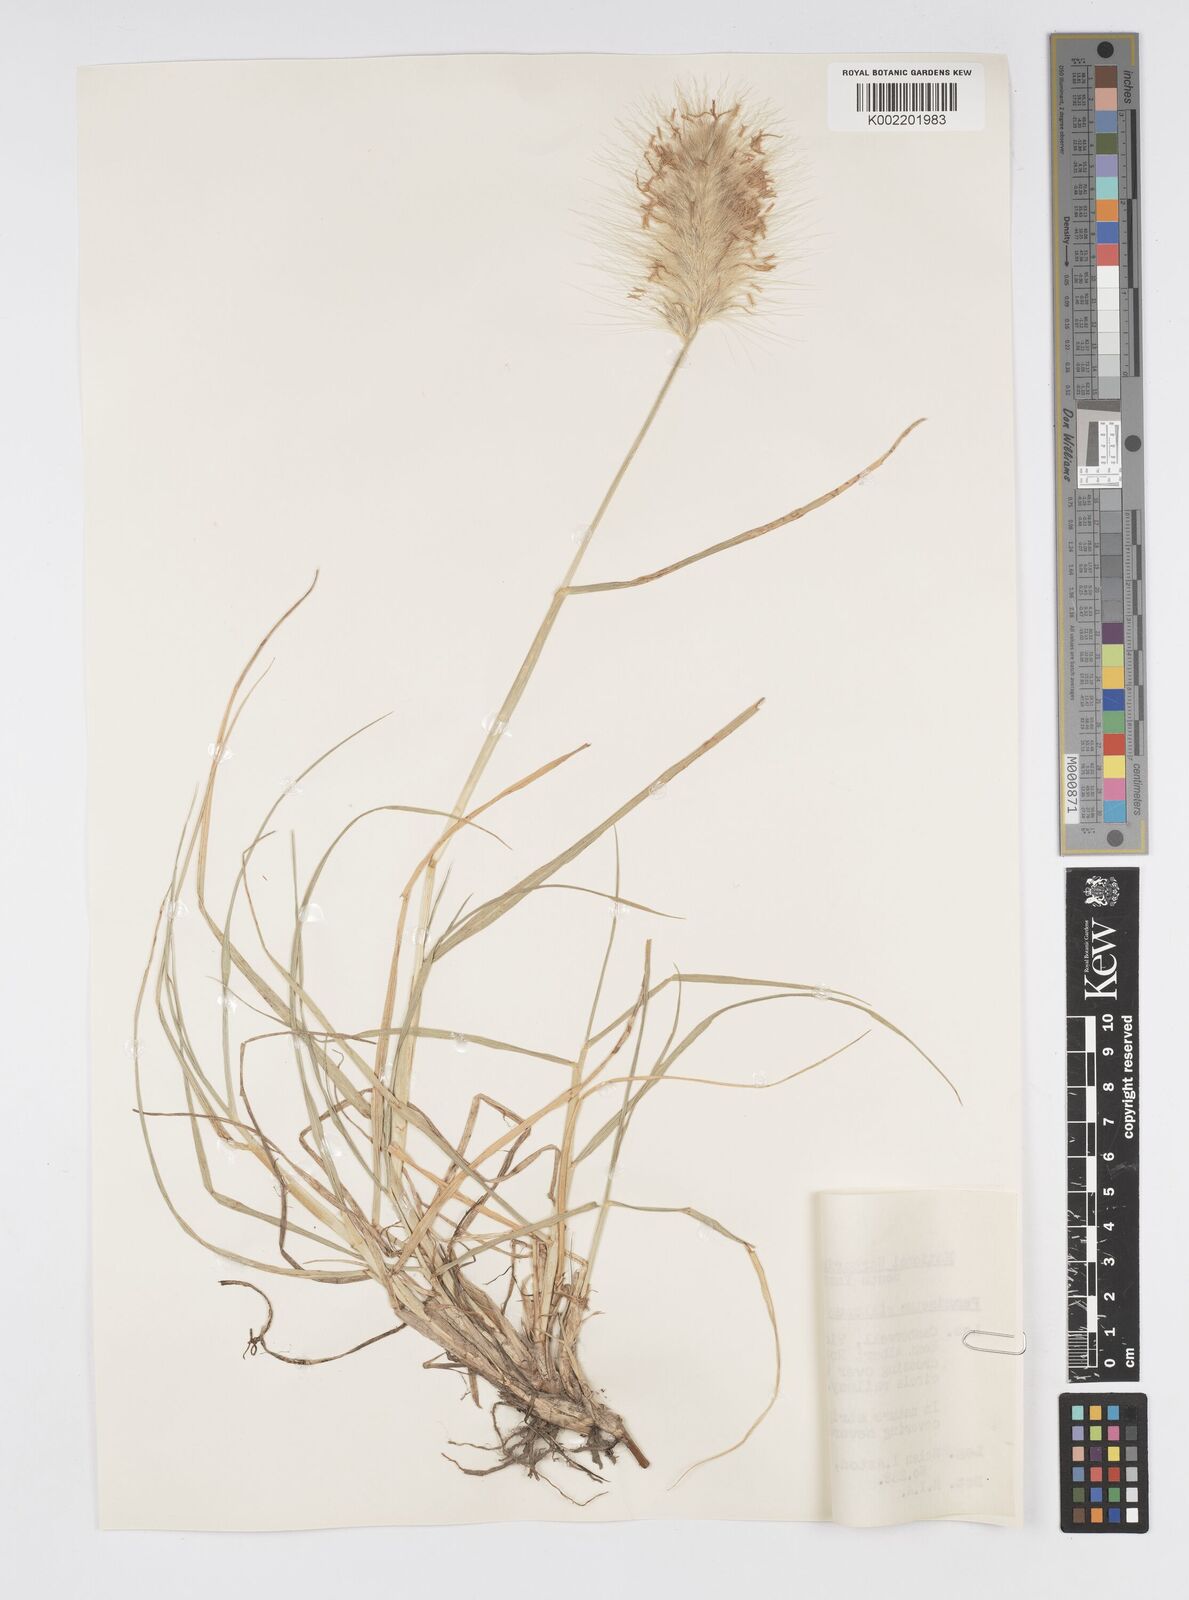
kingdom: Plantae
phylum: Tracheophyta
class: Liliopsida
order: Poales
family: Poaceae
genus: Cenchrus
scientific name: Cenchrus longisetus
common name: Feathertop
